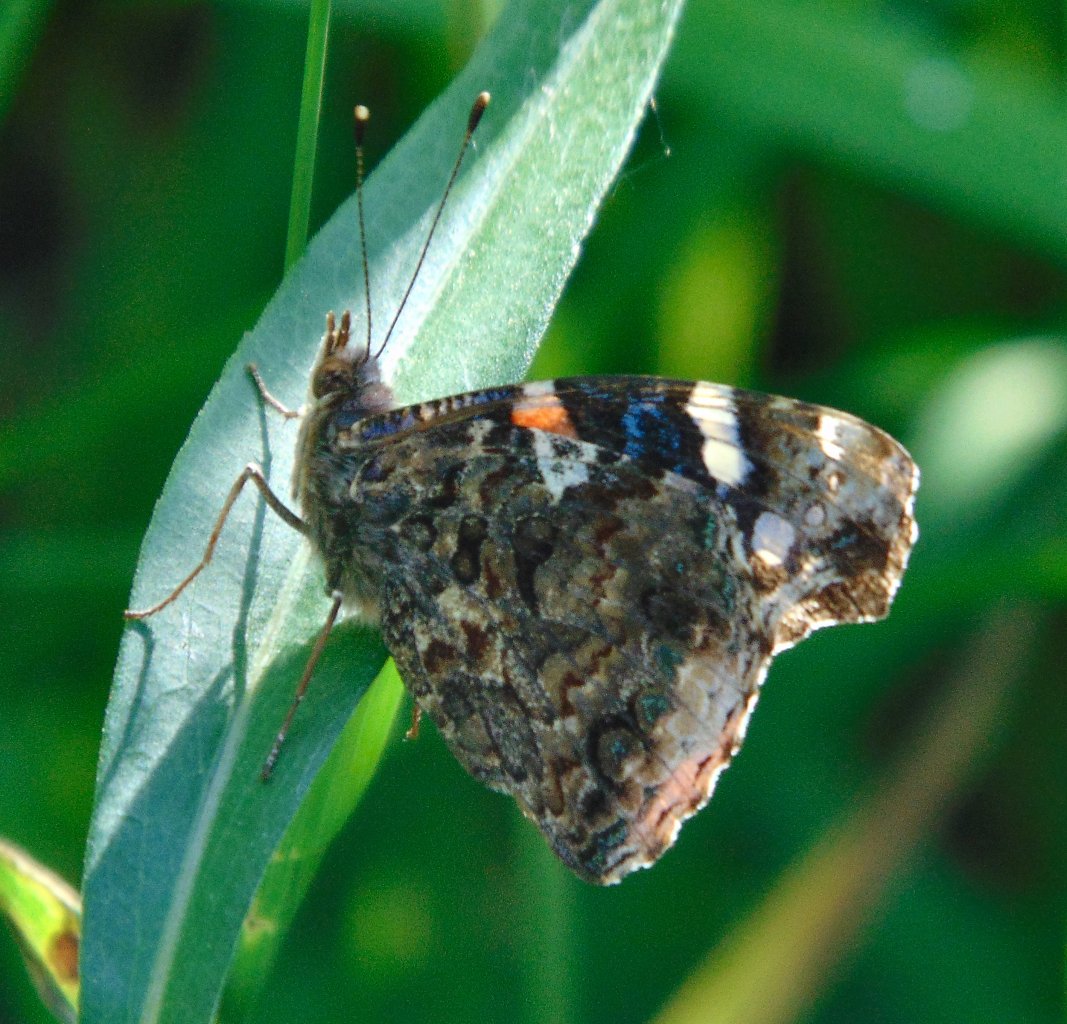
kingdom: Animalia
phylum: Arthropoda
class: Insecta
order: Lepidoptera
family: Nymphalidae
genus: Vanessa
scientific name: Vanessa atalanta
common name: Red Admiral
